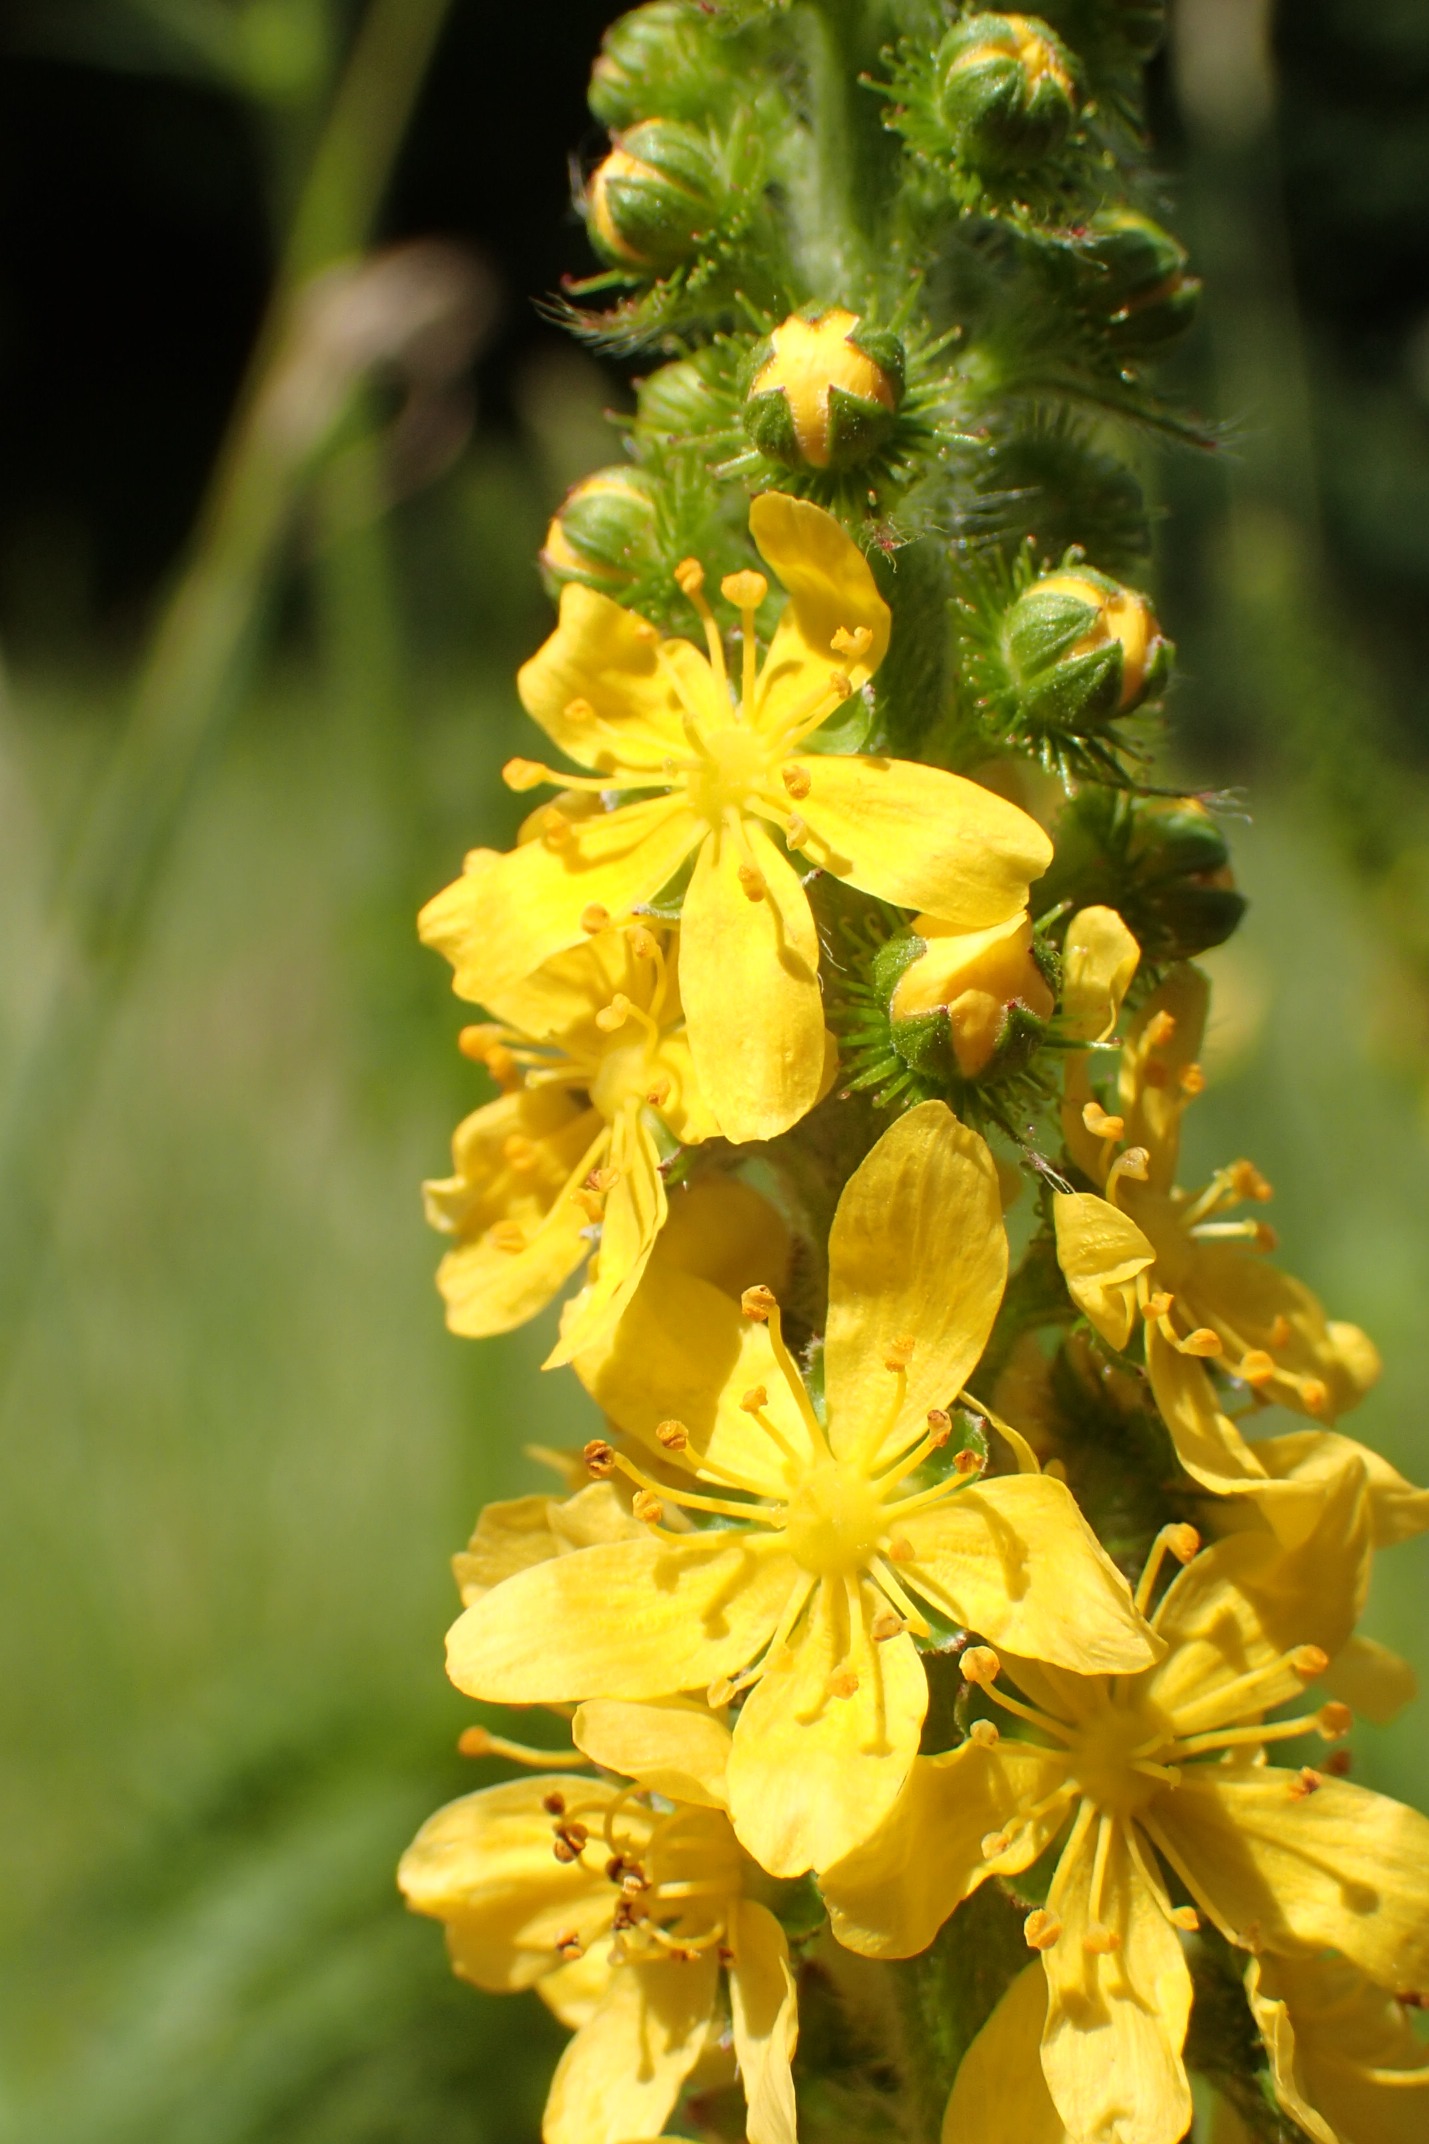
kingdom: Plantae
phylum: Tracheophyta
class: Magnoliopsida
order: Rosales
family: Rosaceae
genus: Agrimonia
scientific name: Agrimonia eupatoria
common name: Almindelig agermåne
